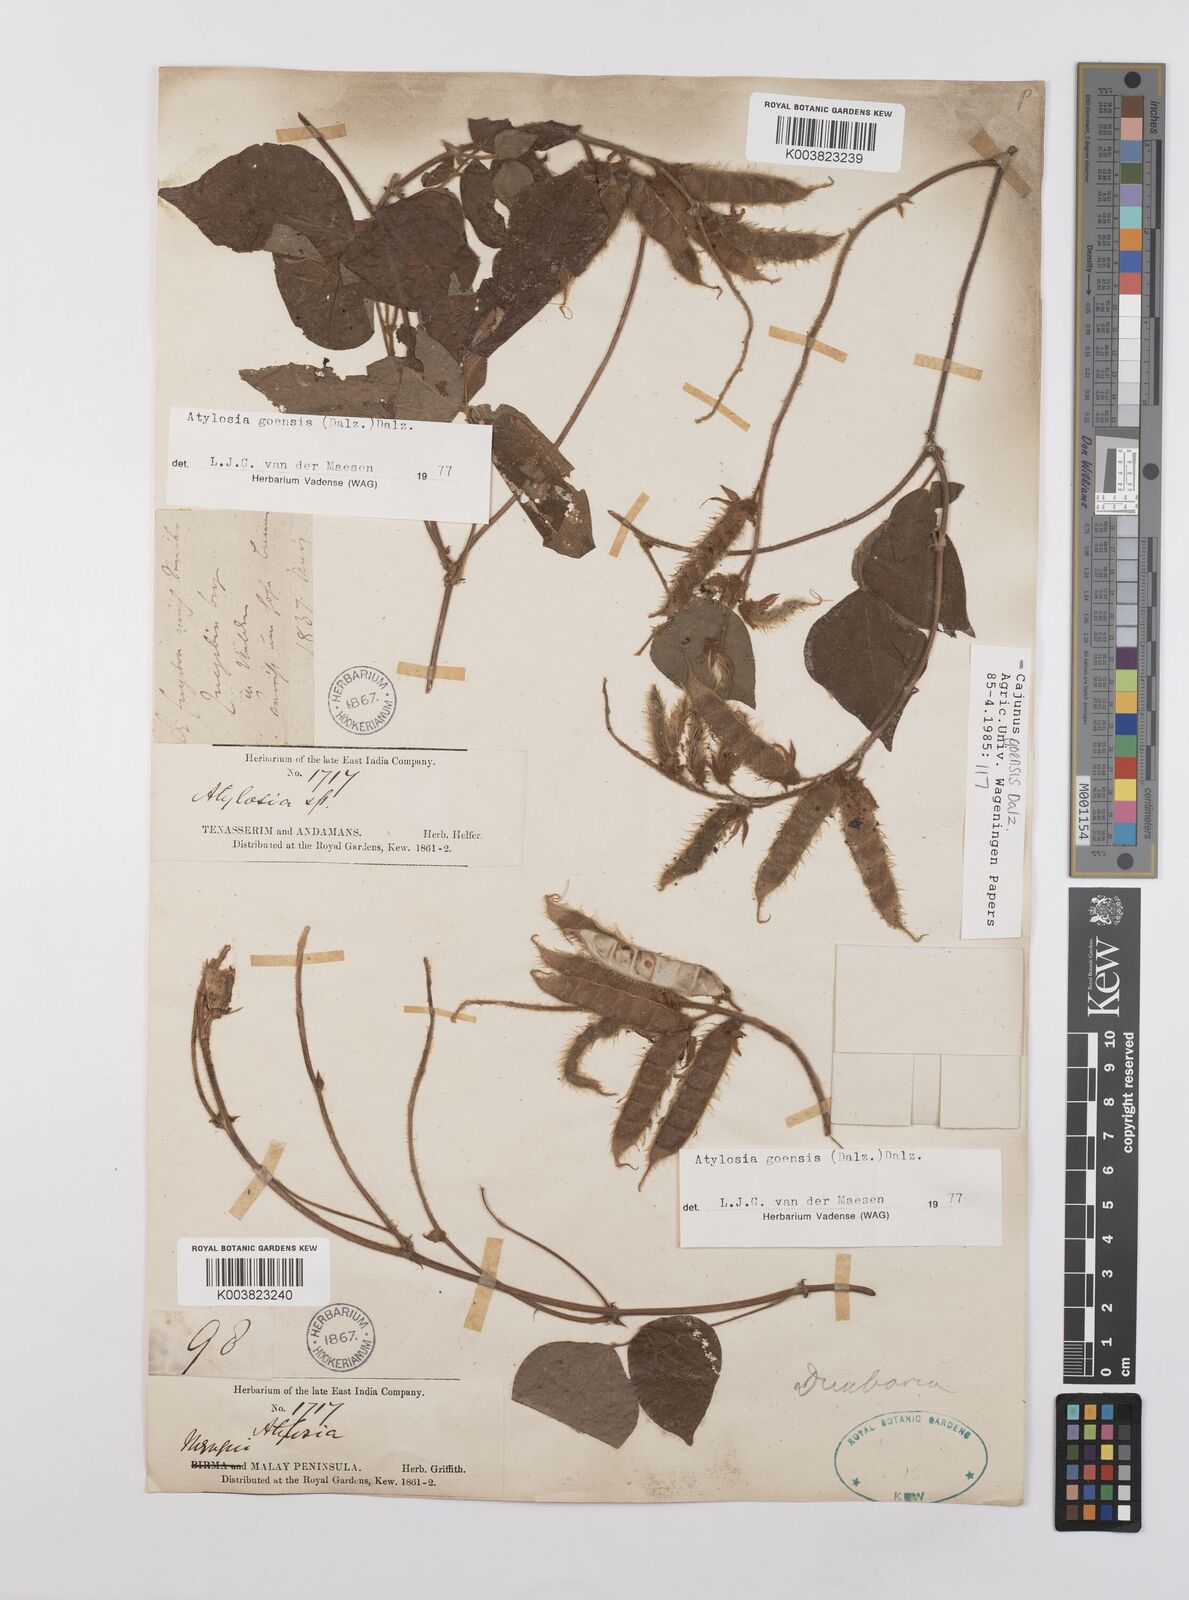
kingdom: Plantae
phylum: Tracheophyta
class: Magnoliopsida
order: Fabales
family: Fabaceae
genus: Cajanus
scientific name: Cajanus goensis
